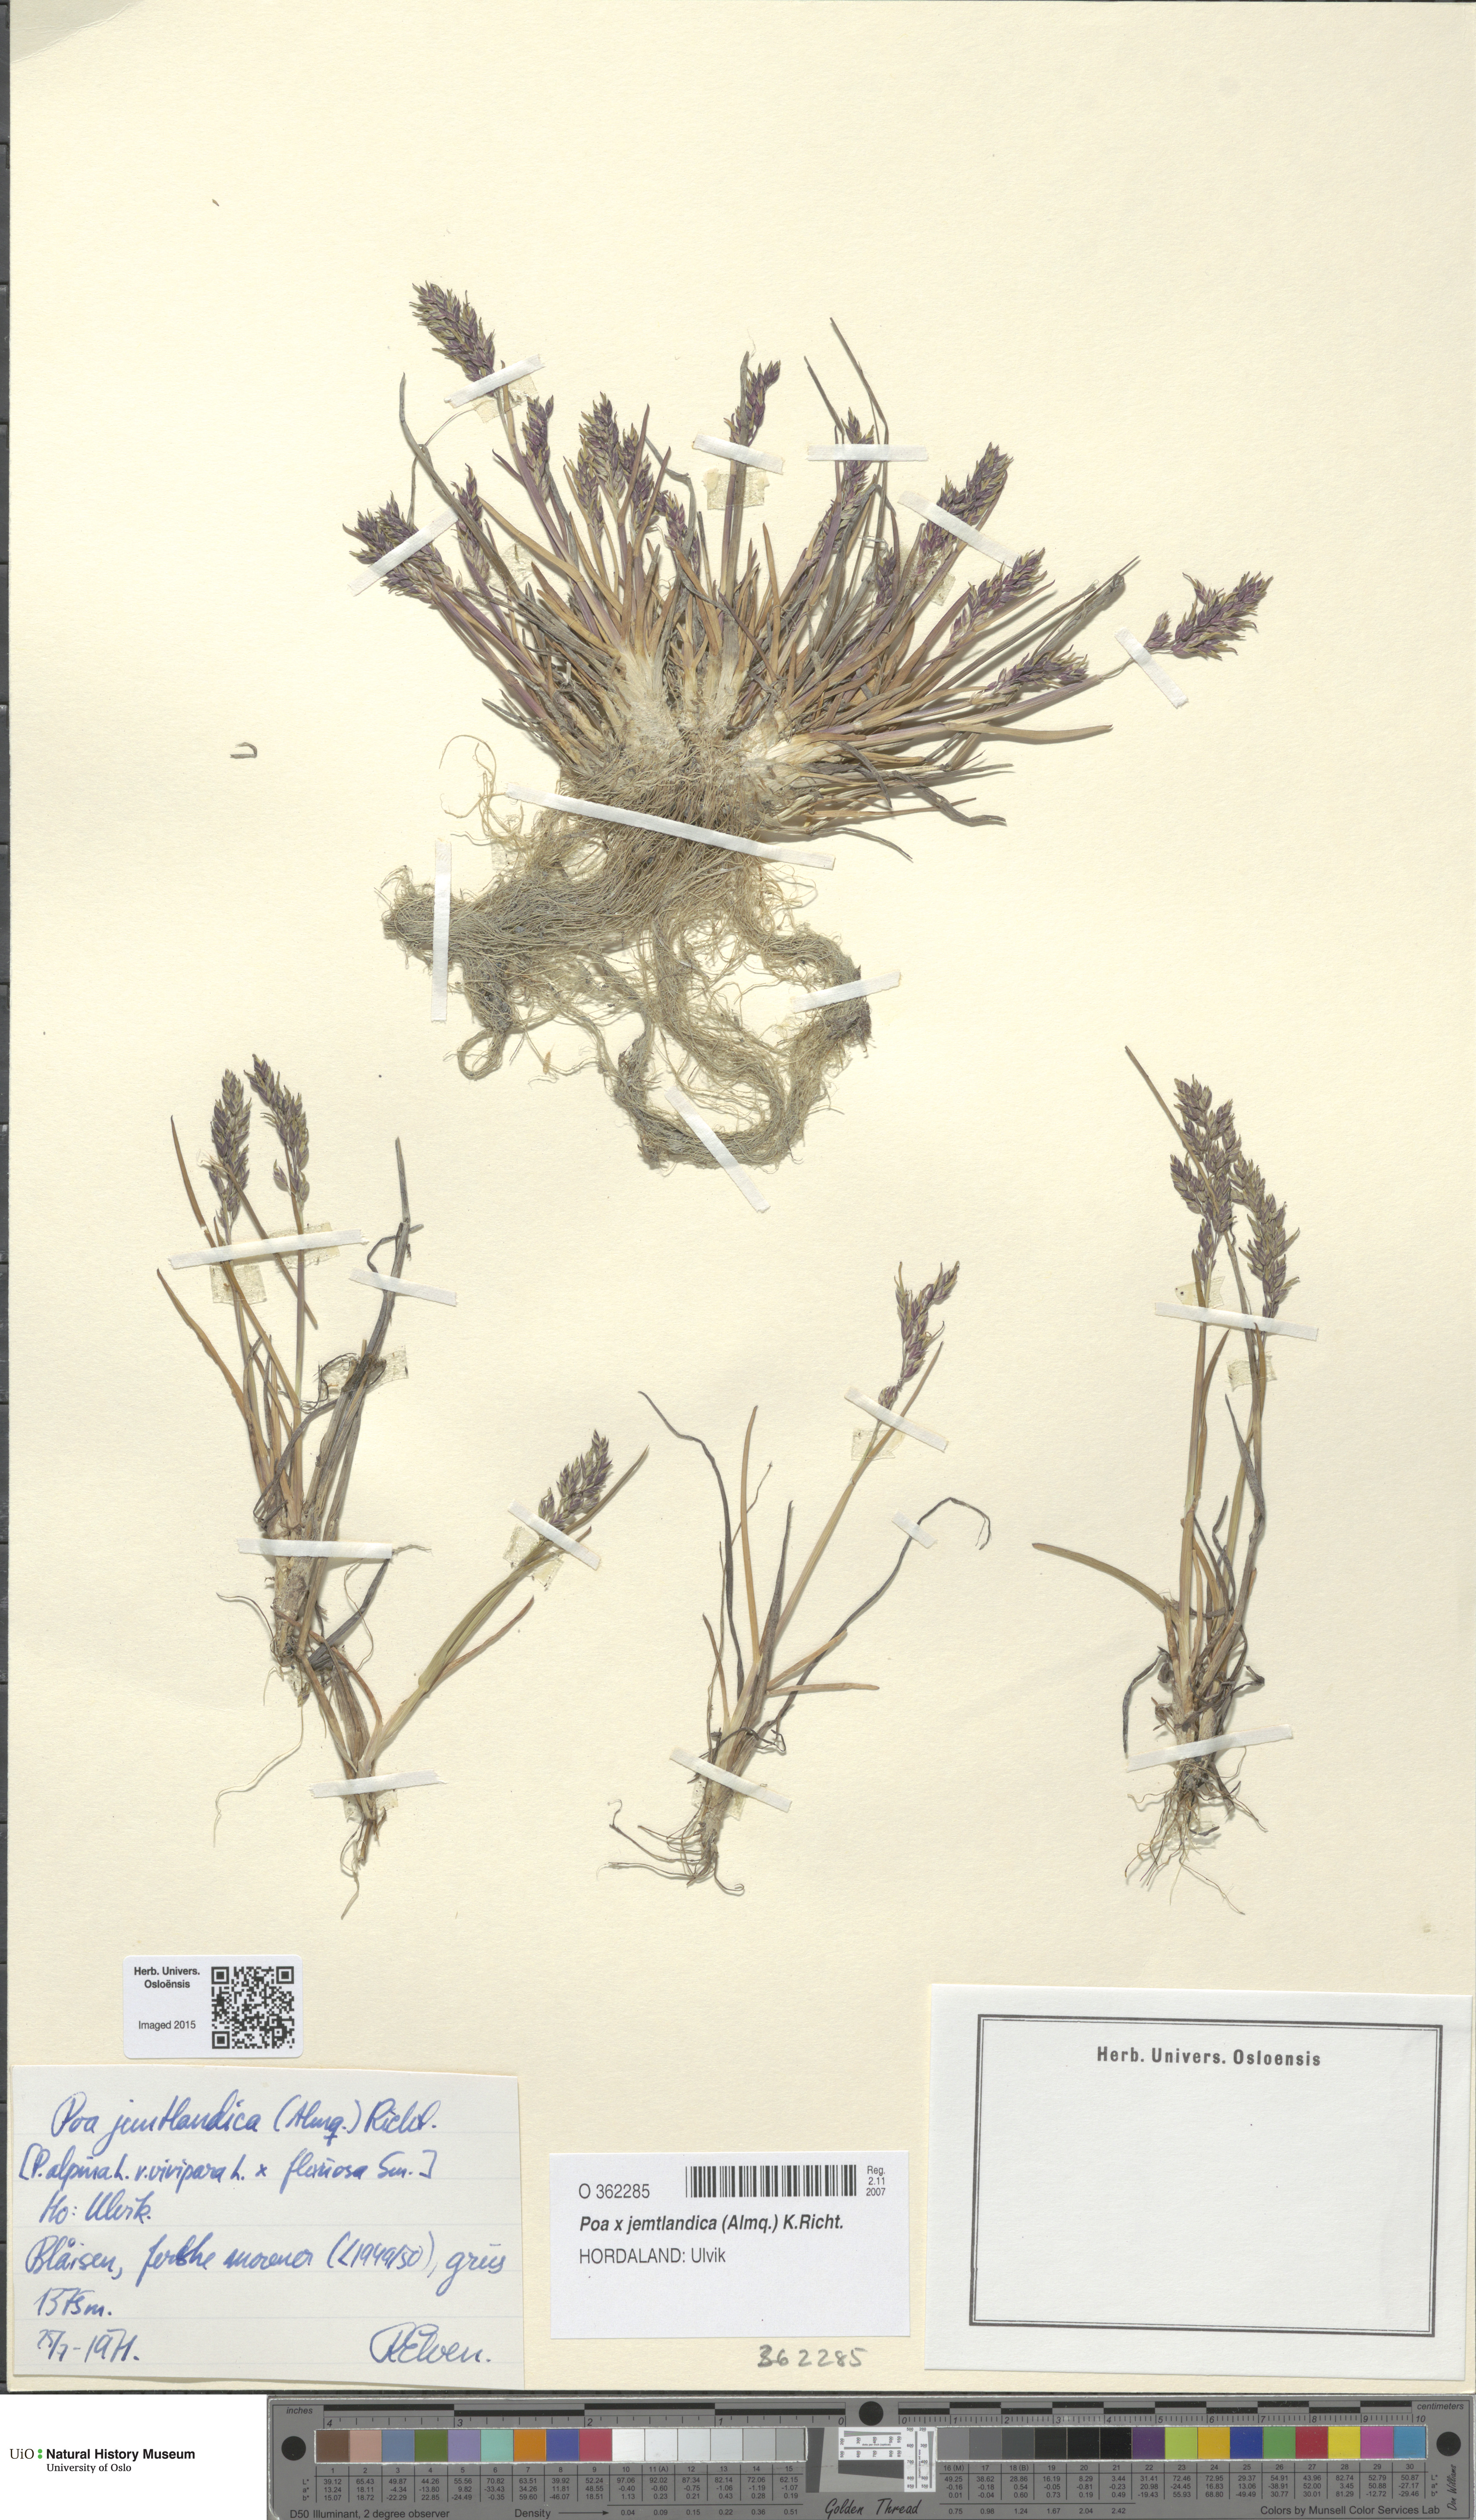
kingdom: Plantae
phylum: Tracheophyta
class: Liliopsida
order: Poales
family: Poaceae
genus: Poa
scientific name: Poa jemtlandica
